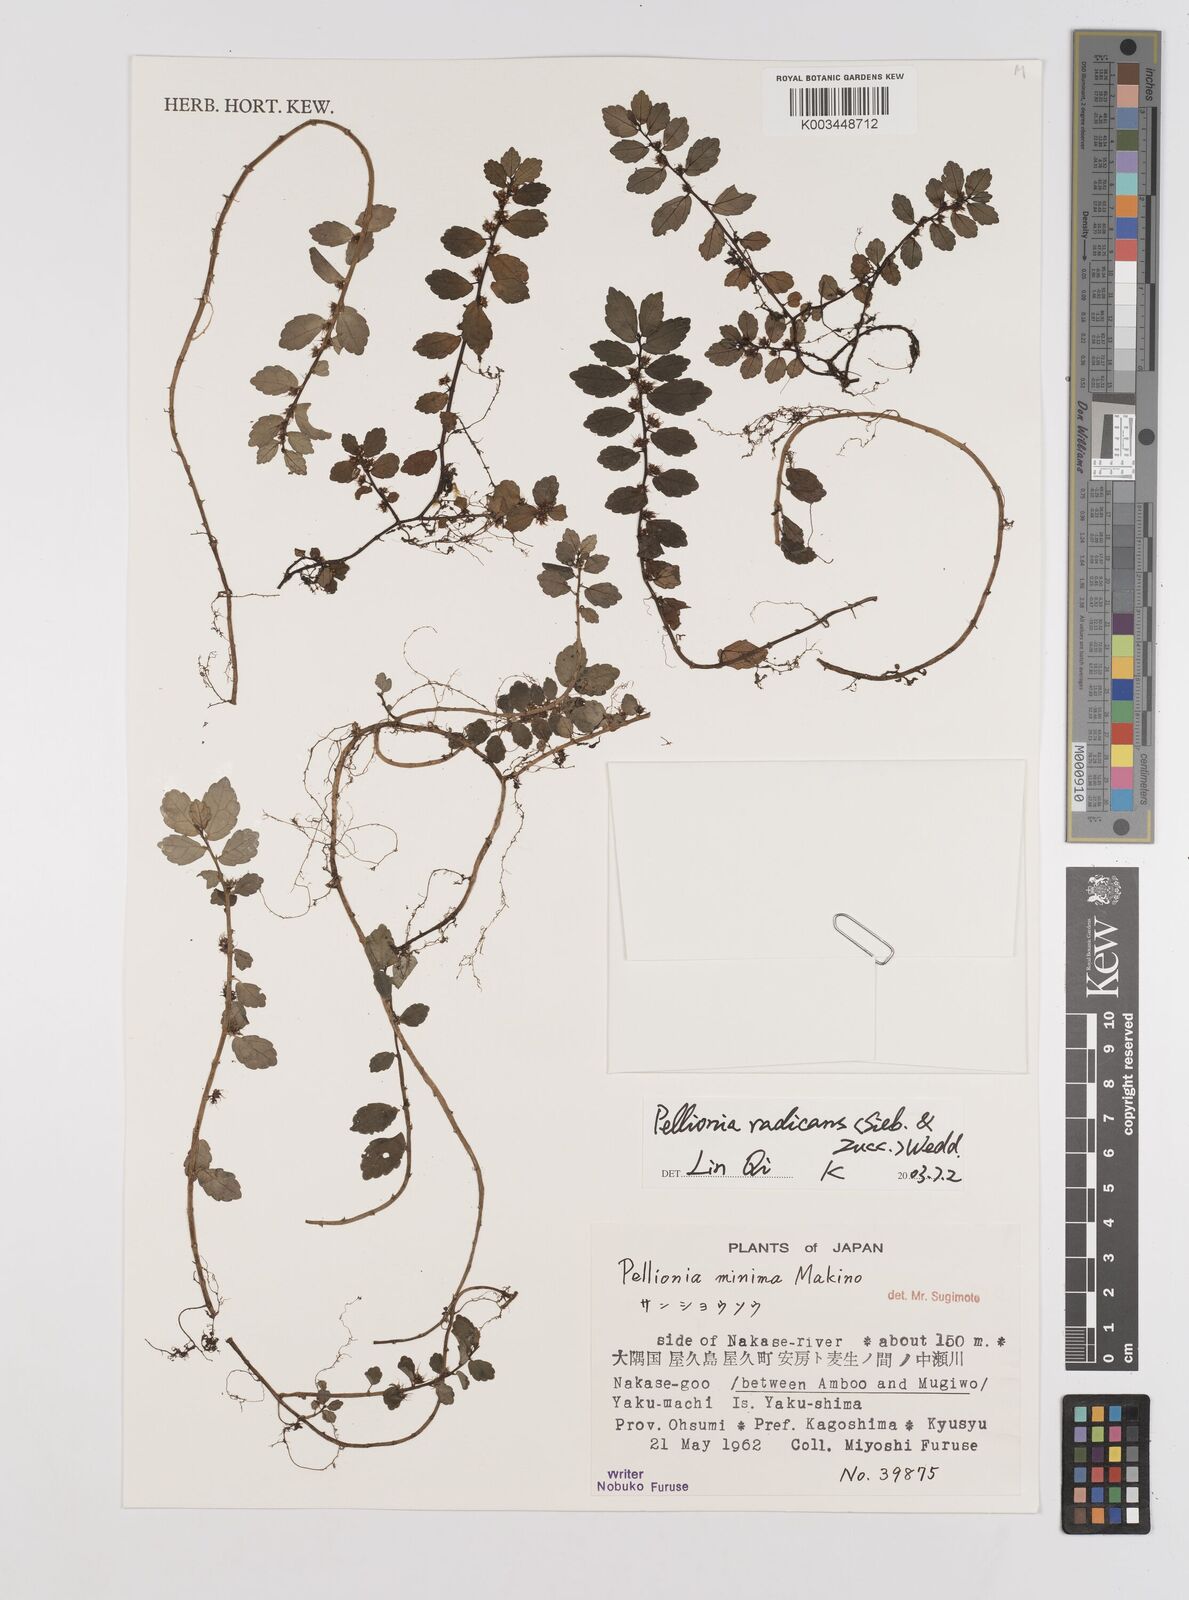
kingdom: Plantae
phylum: Tracheophyta
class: Magnoliopsida
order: Rosales
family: Urticaceae
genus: Elatostema
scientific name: Elatostema radicans
